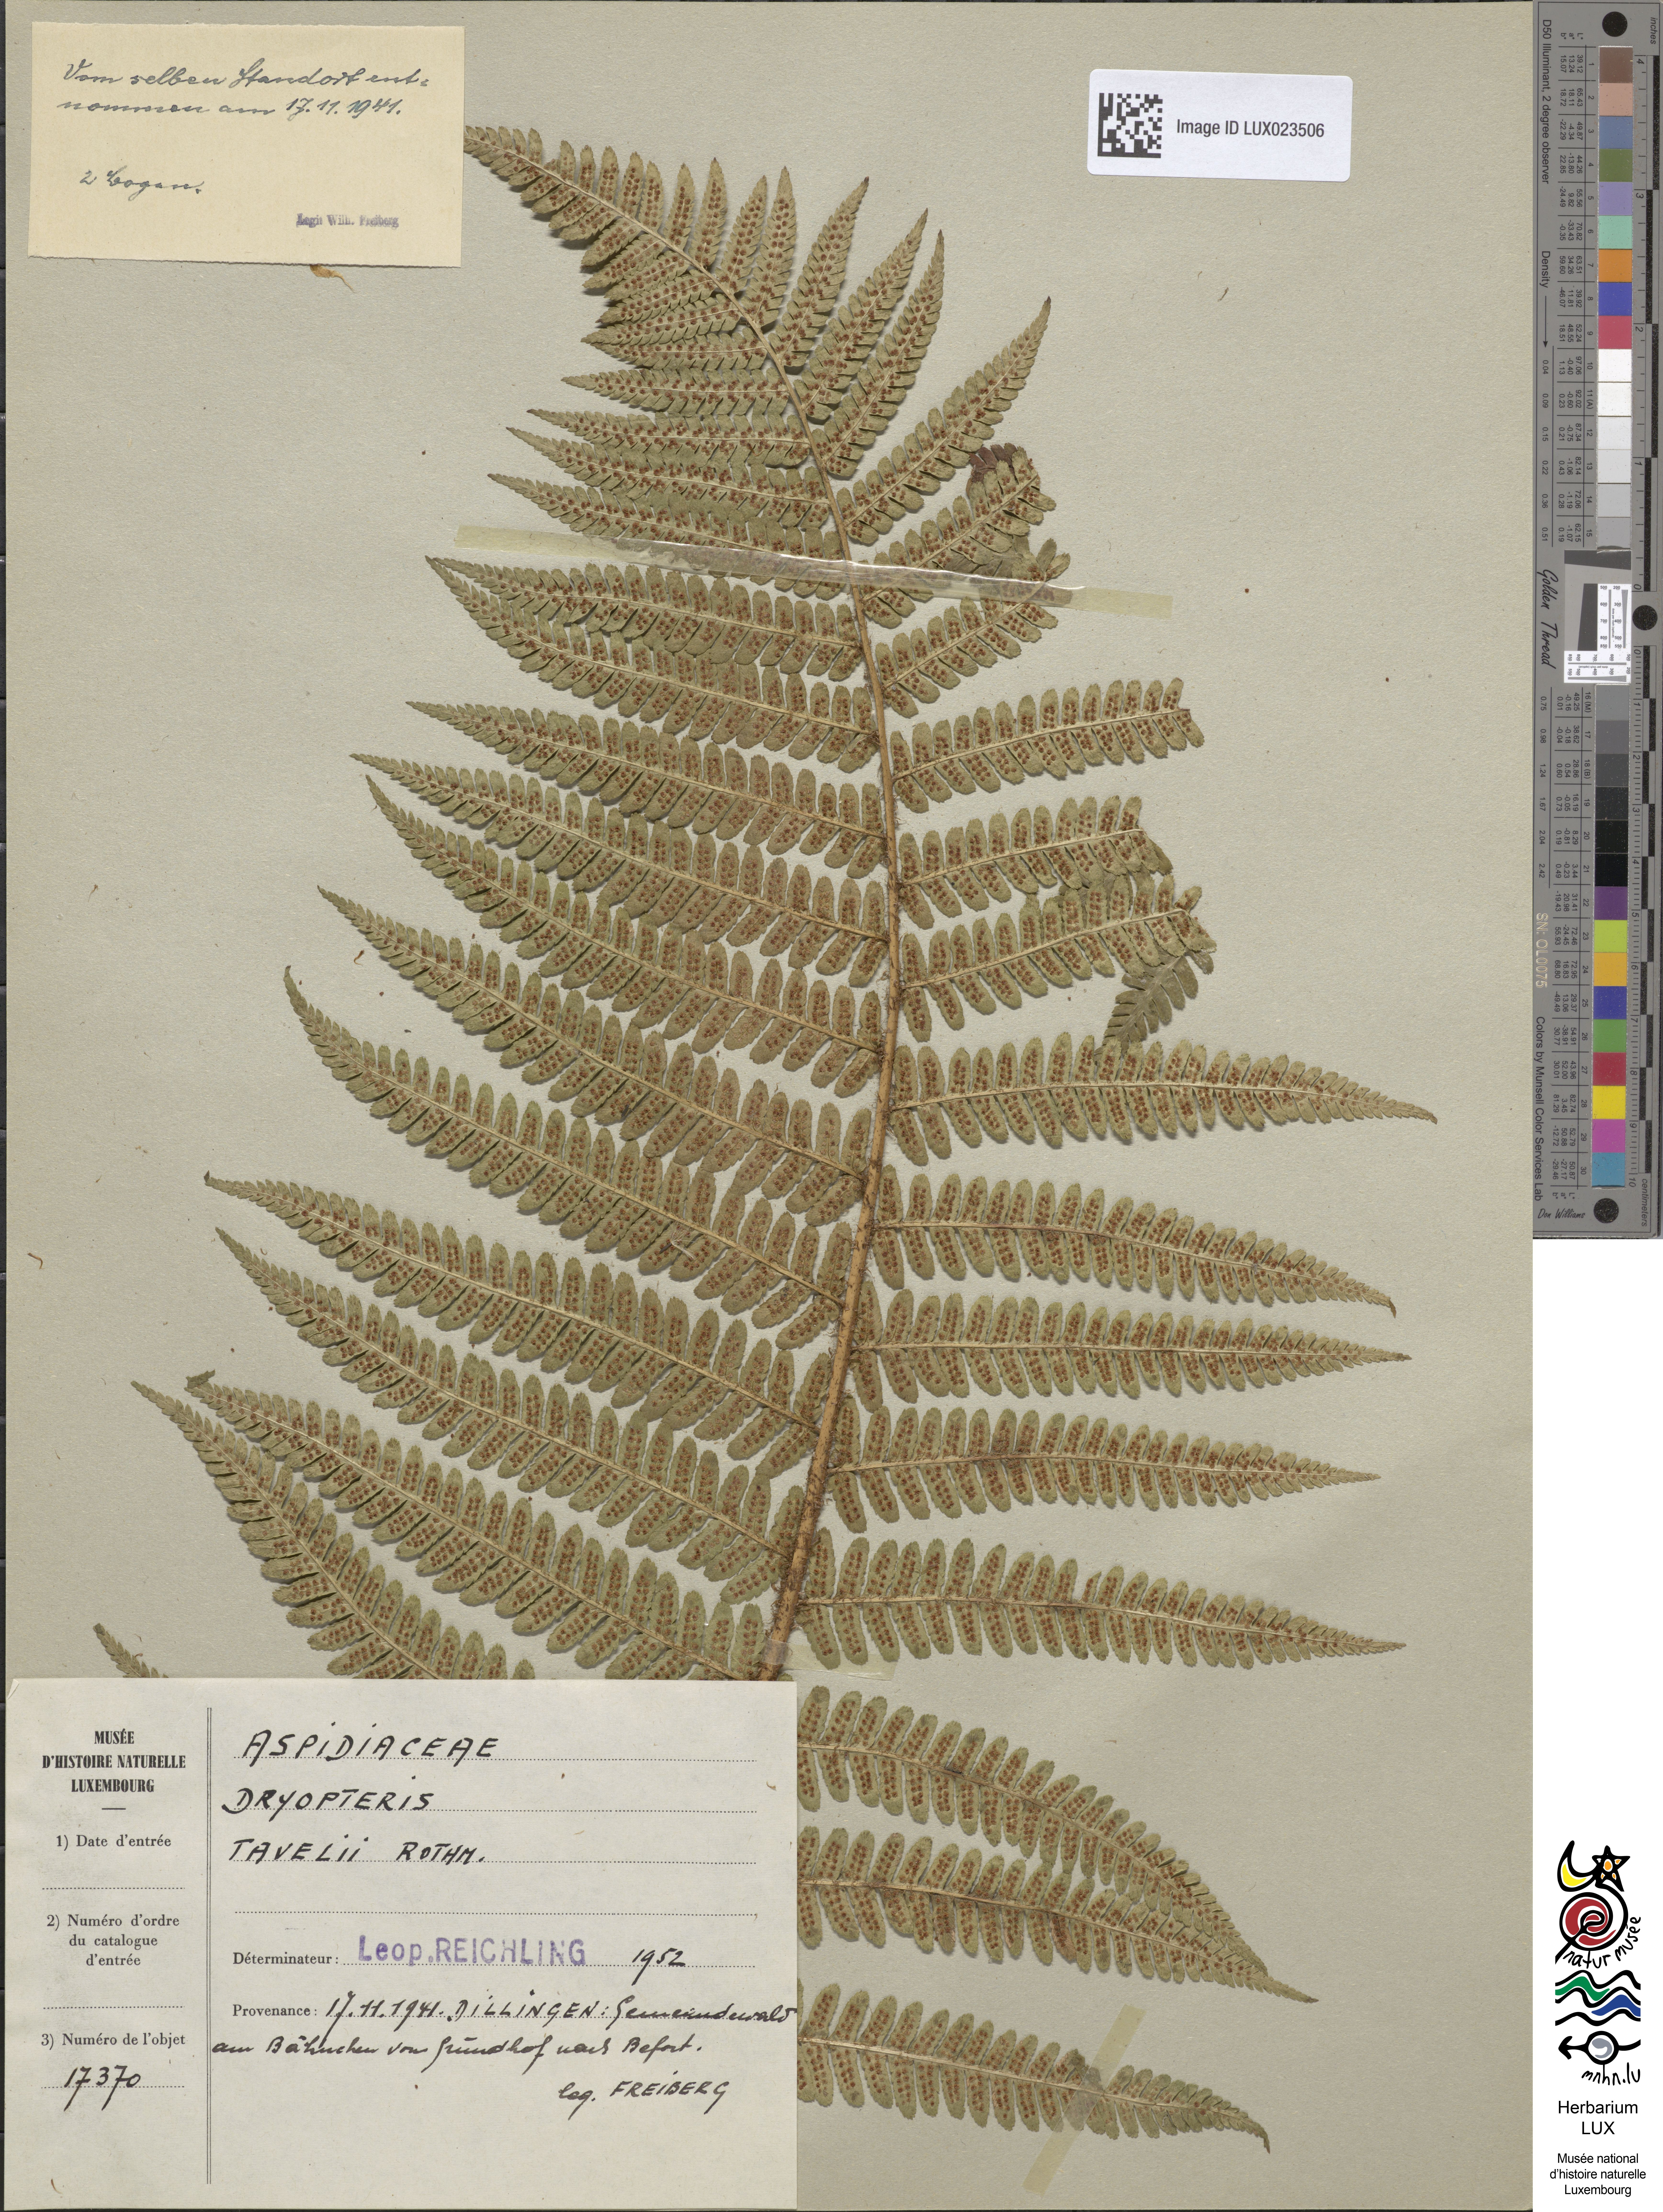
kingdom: Plantae
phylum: Tracheophyta
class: Polypodiopsida
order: Polypodiales
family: Dryopteridaceae
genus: Dryopteris
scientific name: Dryopteris borreri
